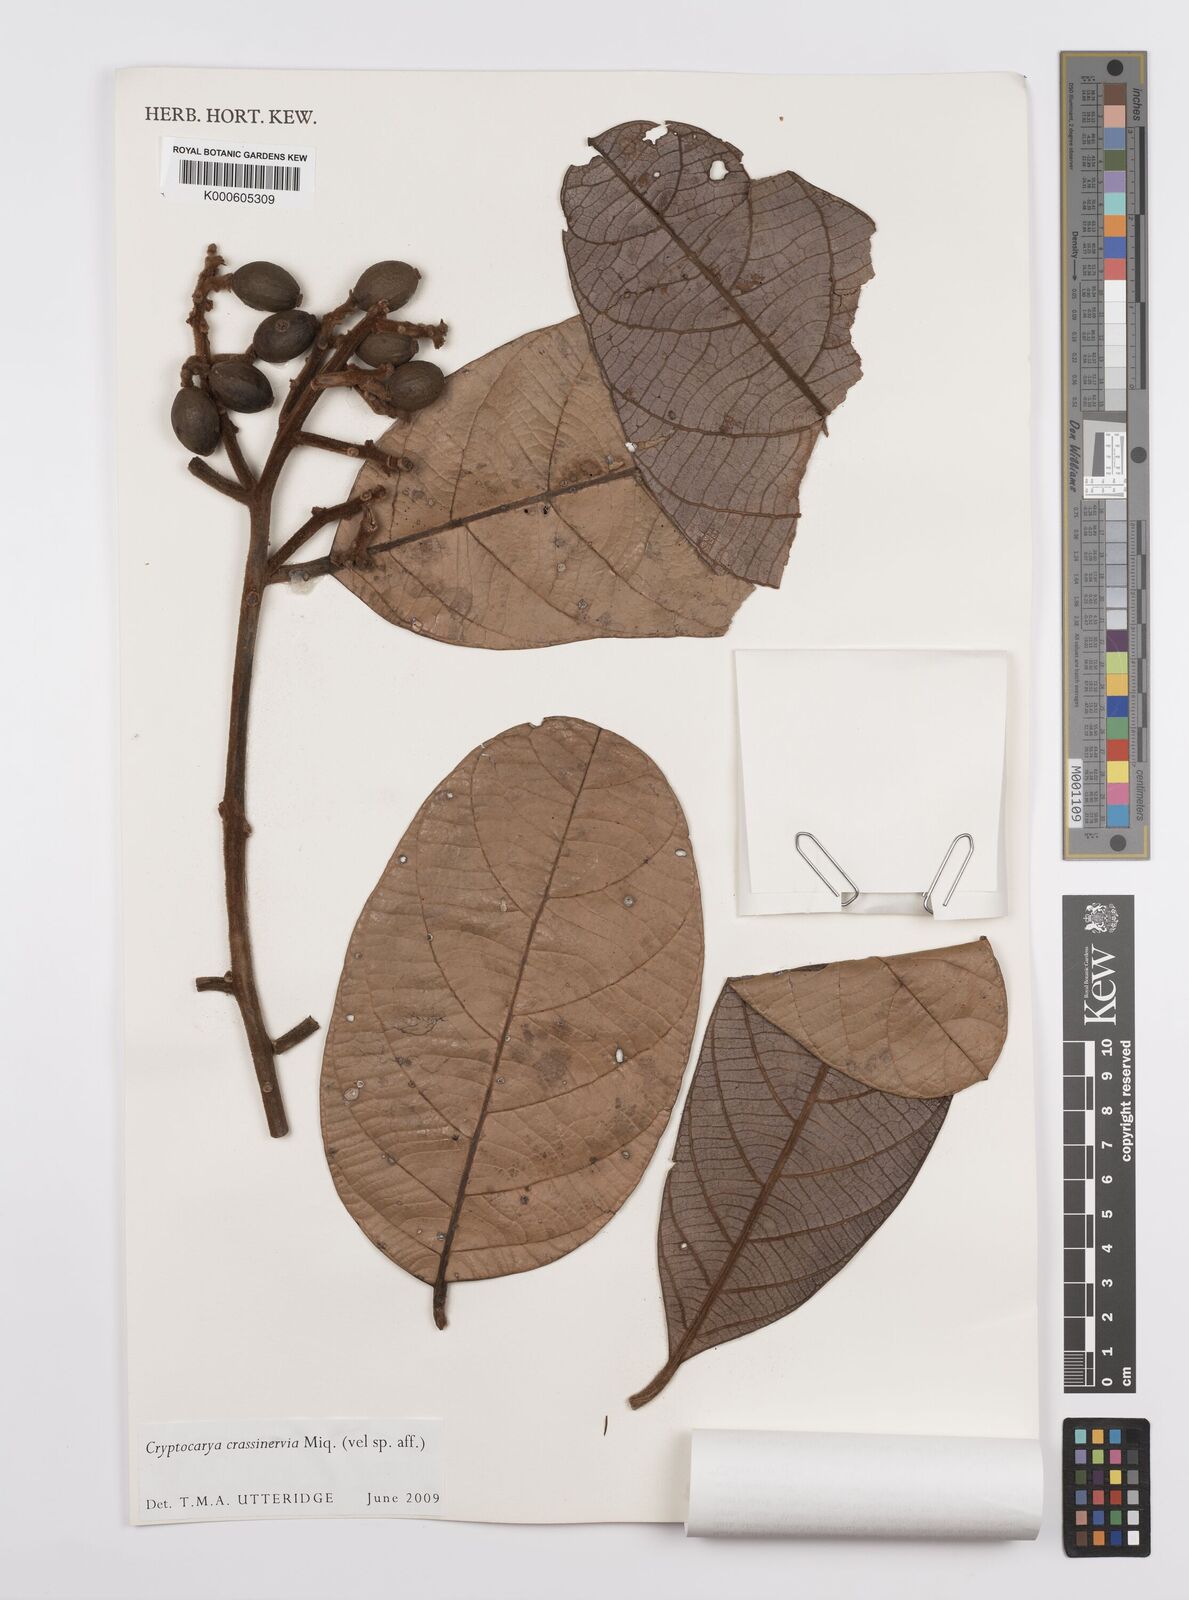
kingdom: Plantae
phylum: Tracheophyta
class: Magnoliopsida
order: Laurales
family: Lauraceae
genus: Cryptocarya
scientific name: Cryptocarya diversifolia
